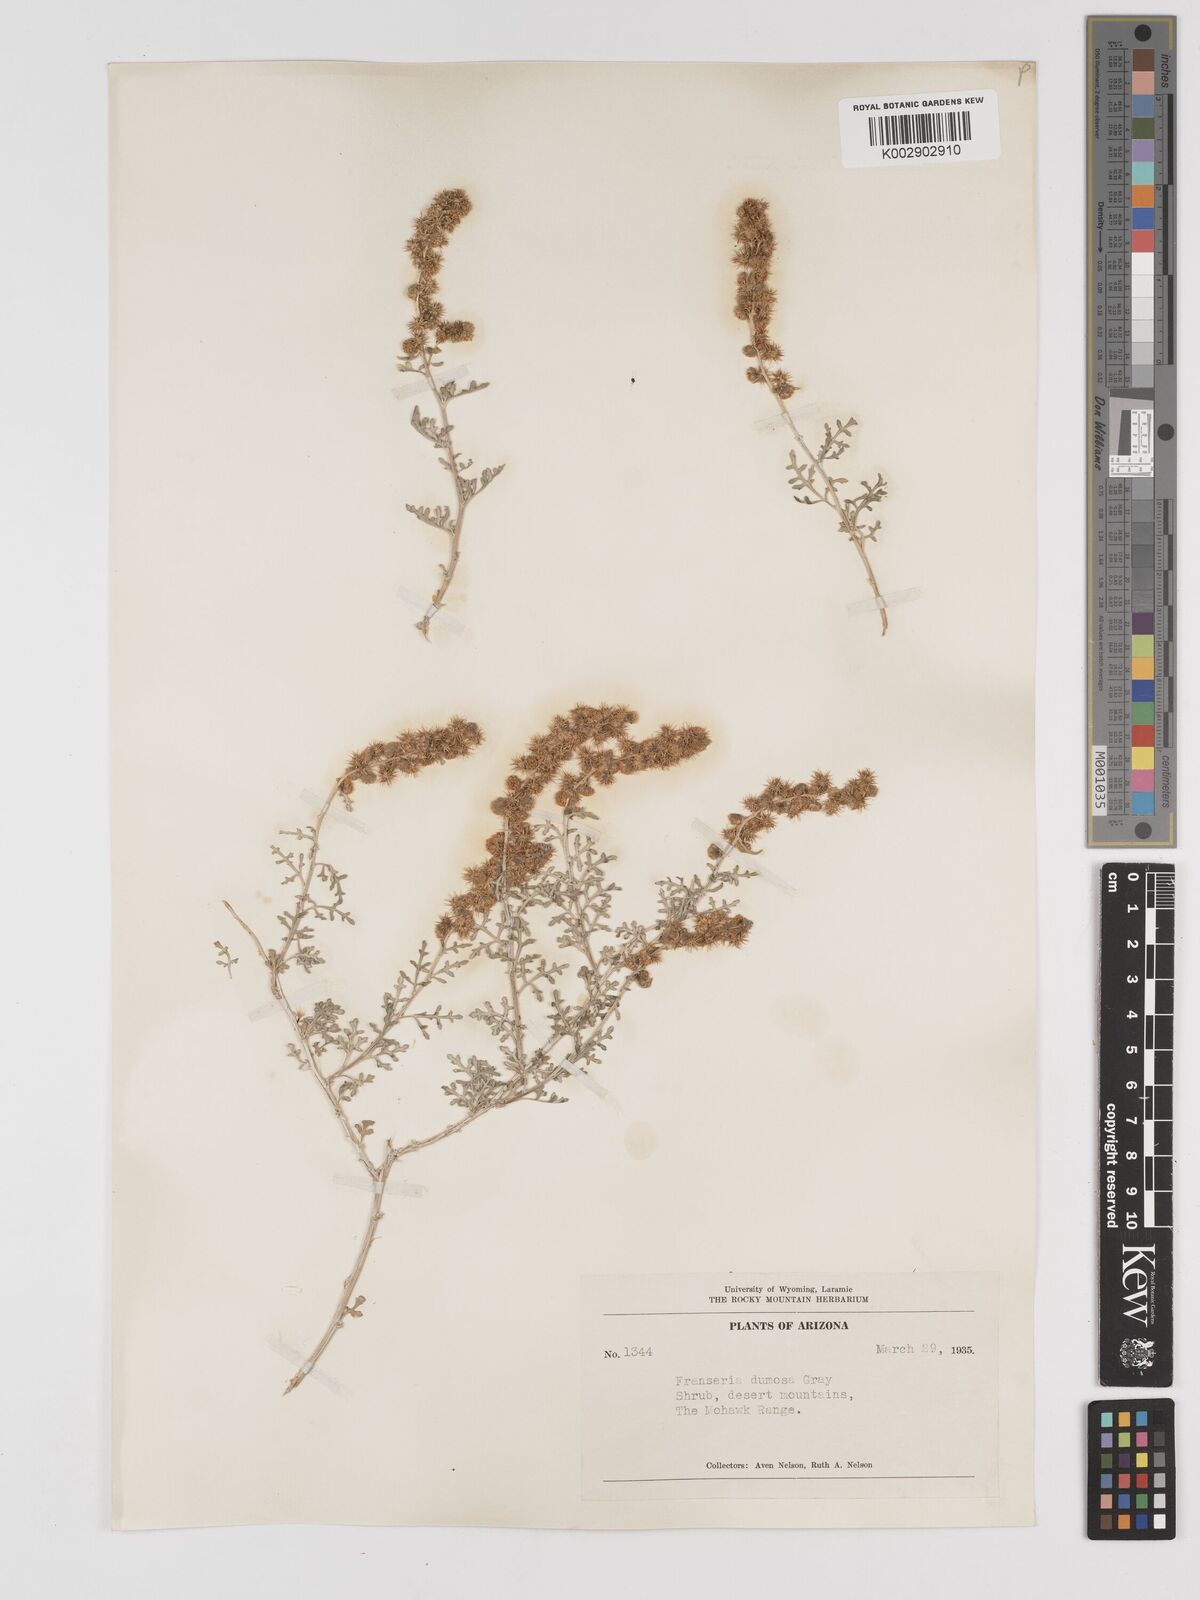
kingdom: Plantae
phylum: Tracheophyta
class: Magnoliopsida
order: Asterales
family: Asteraceae
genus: Ambrosia
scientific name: Ambrosia dumosa
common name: Bur-sage
